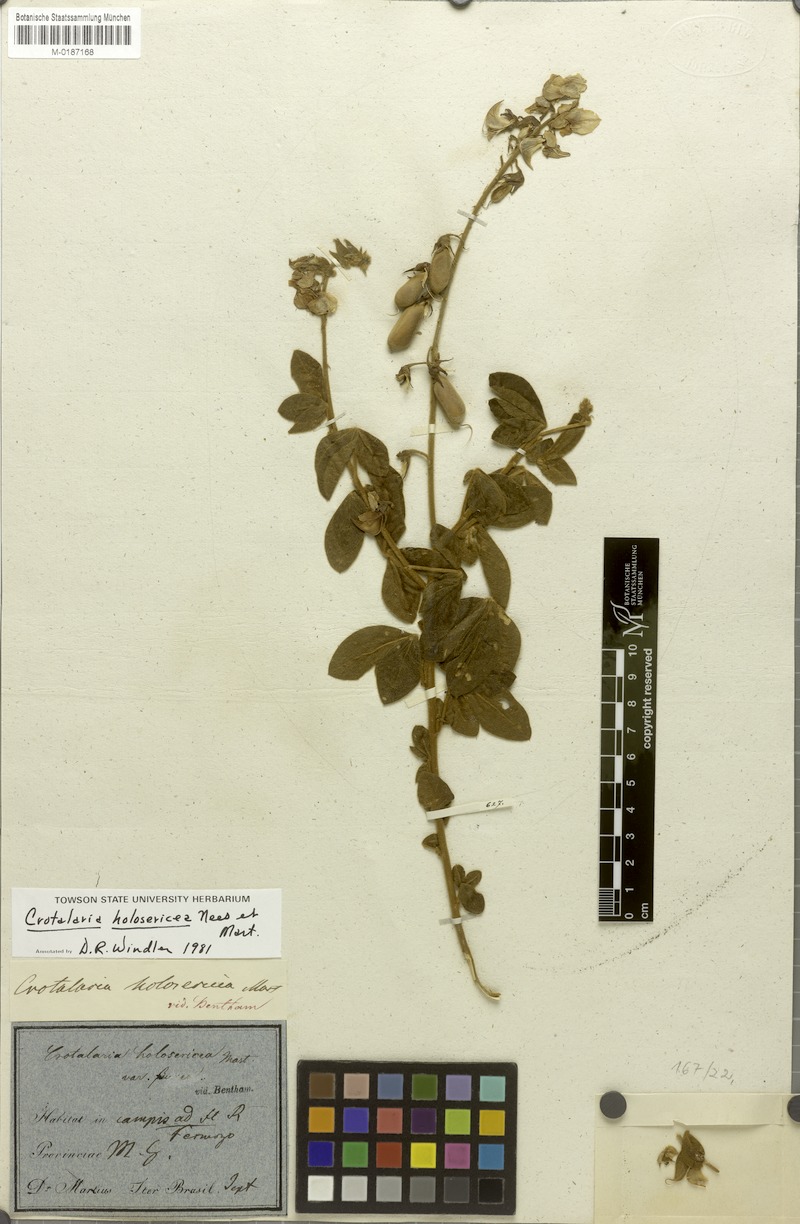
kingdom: Plantae
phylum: Tracheophyta
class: Magnoliopsida
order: Fabales
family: Fabaceae
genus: Crotalaria
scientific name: Crotalaria holosericea
